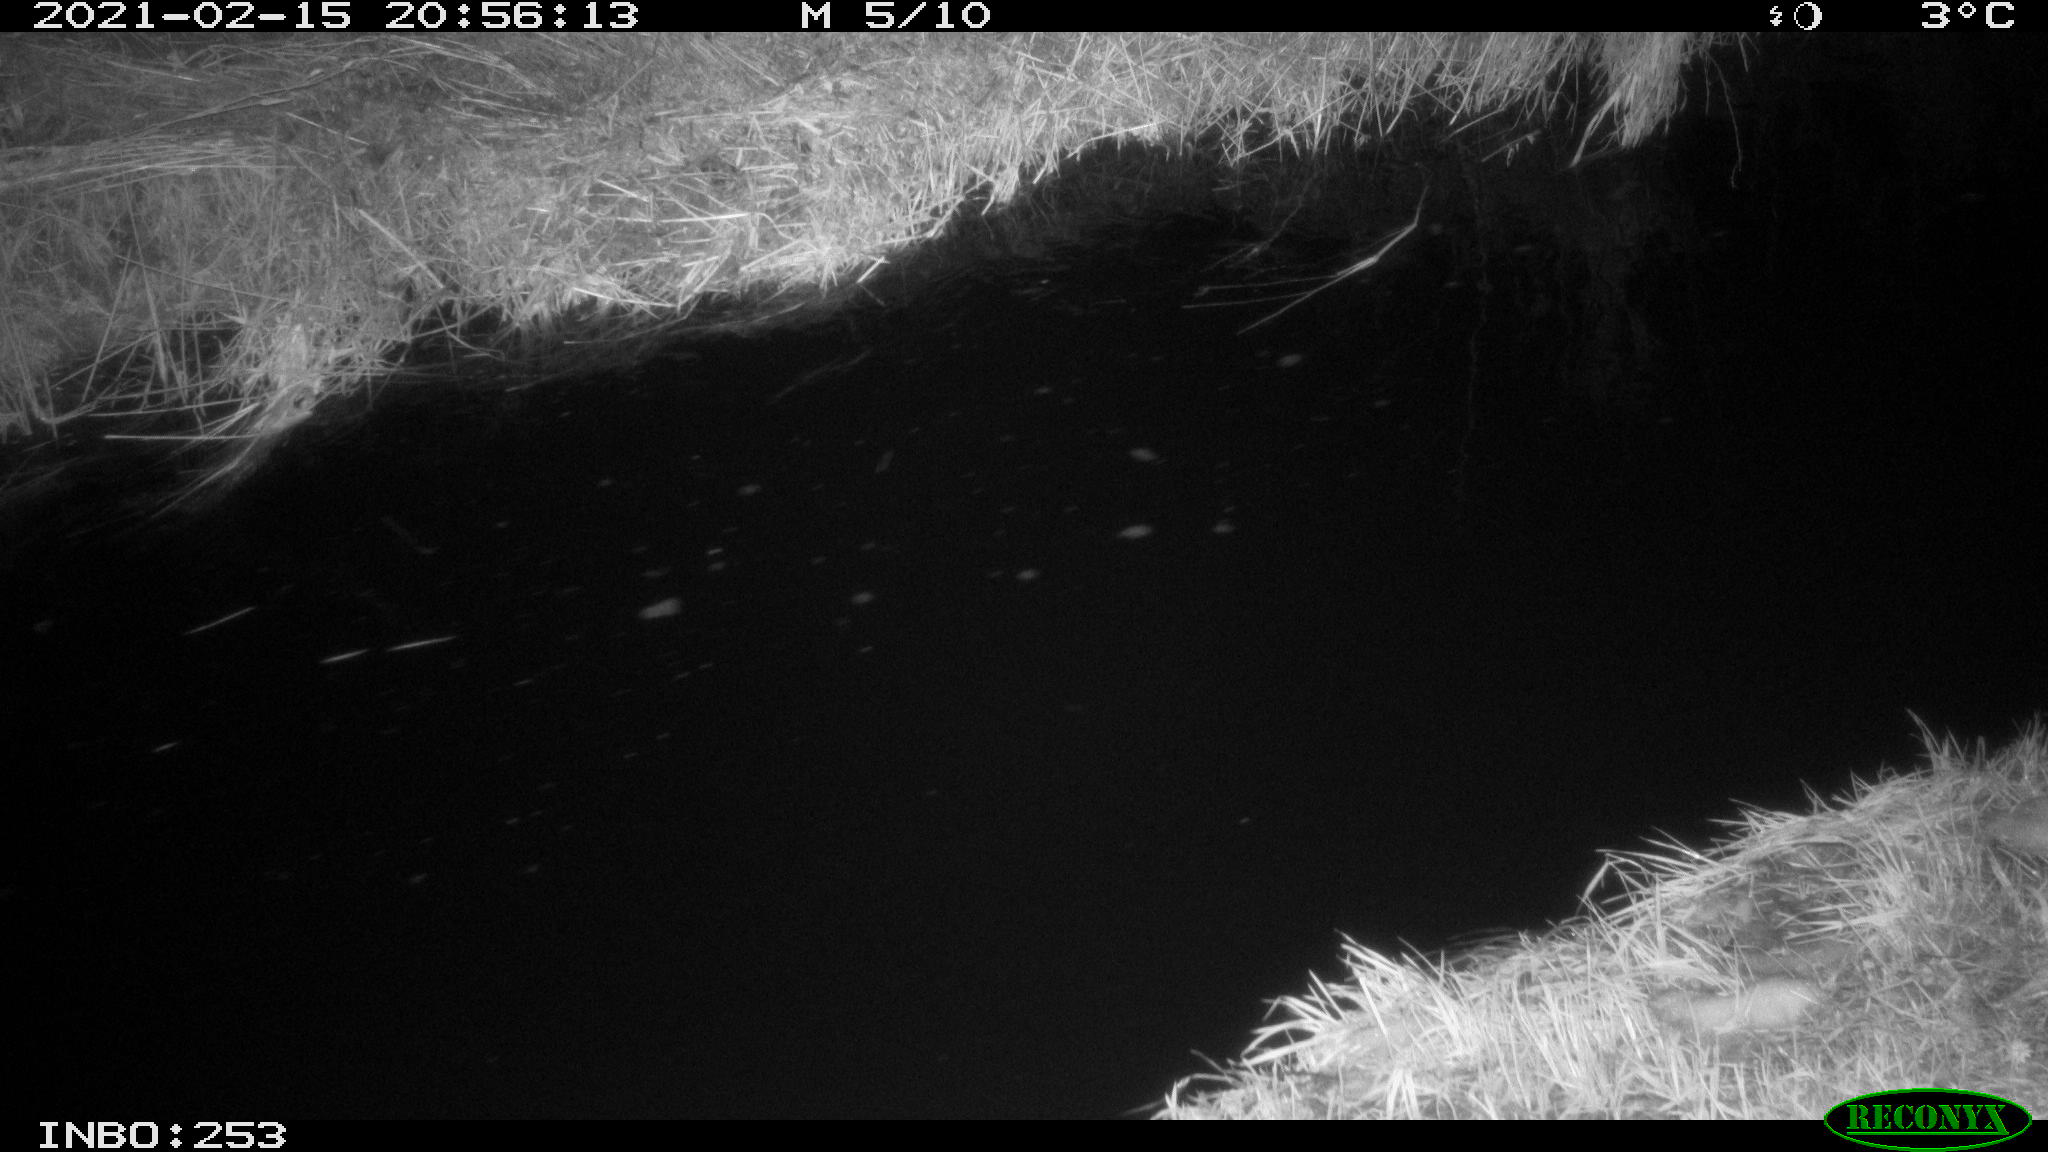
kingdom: Animalia
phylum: Chordata
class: Mammalia
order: Rodentia
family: Muridae
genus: Rattus
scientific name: Rattus norvegicus
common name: Brown rat
